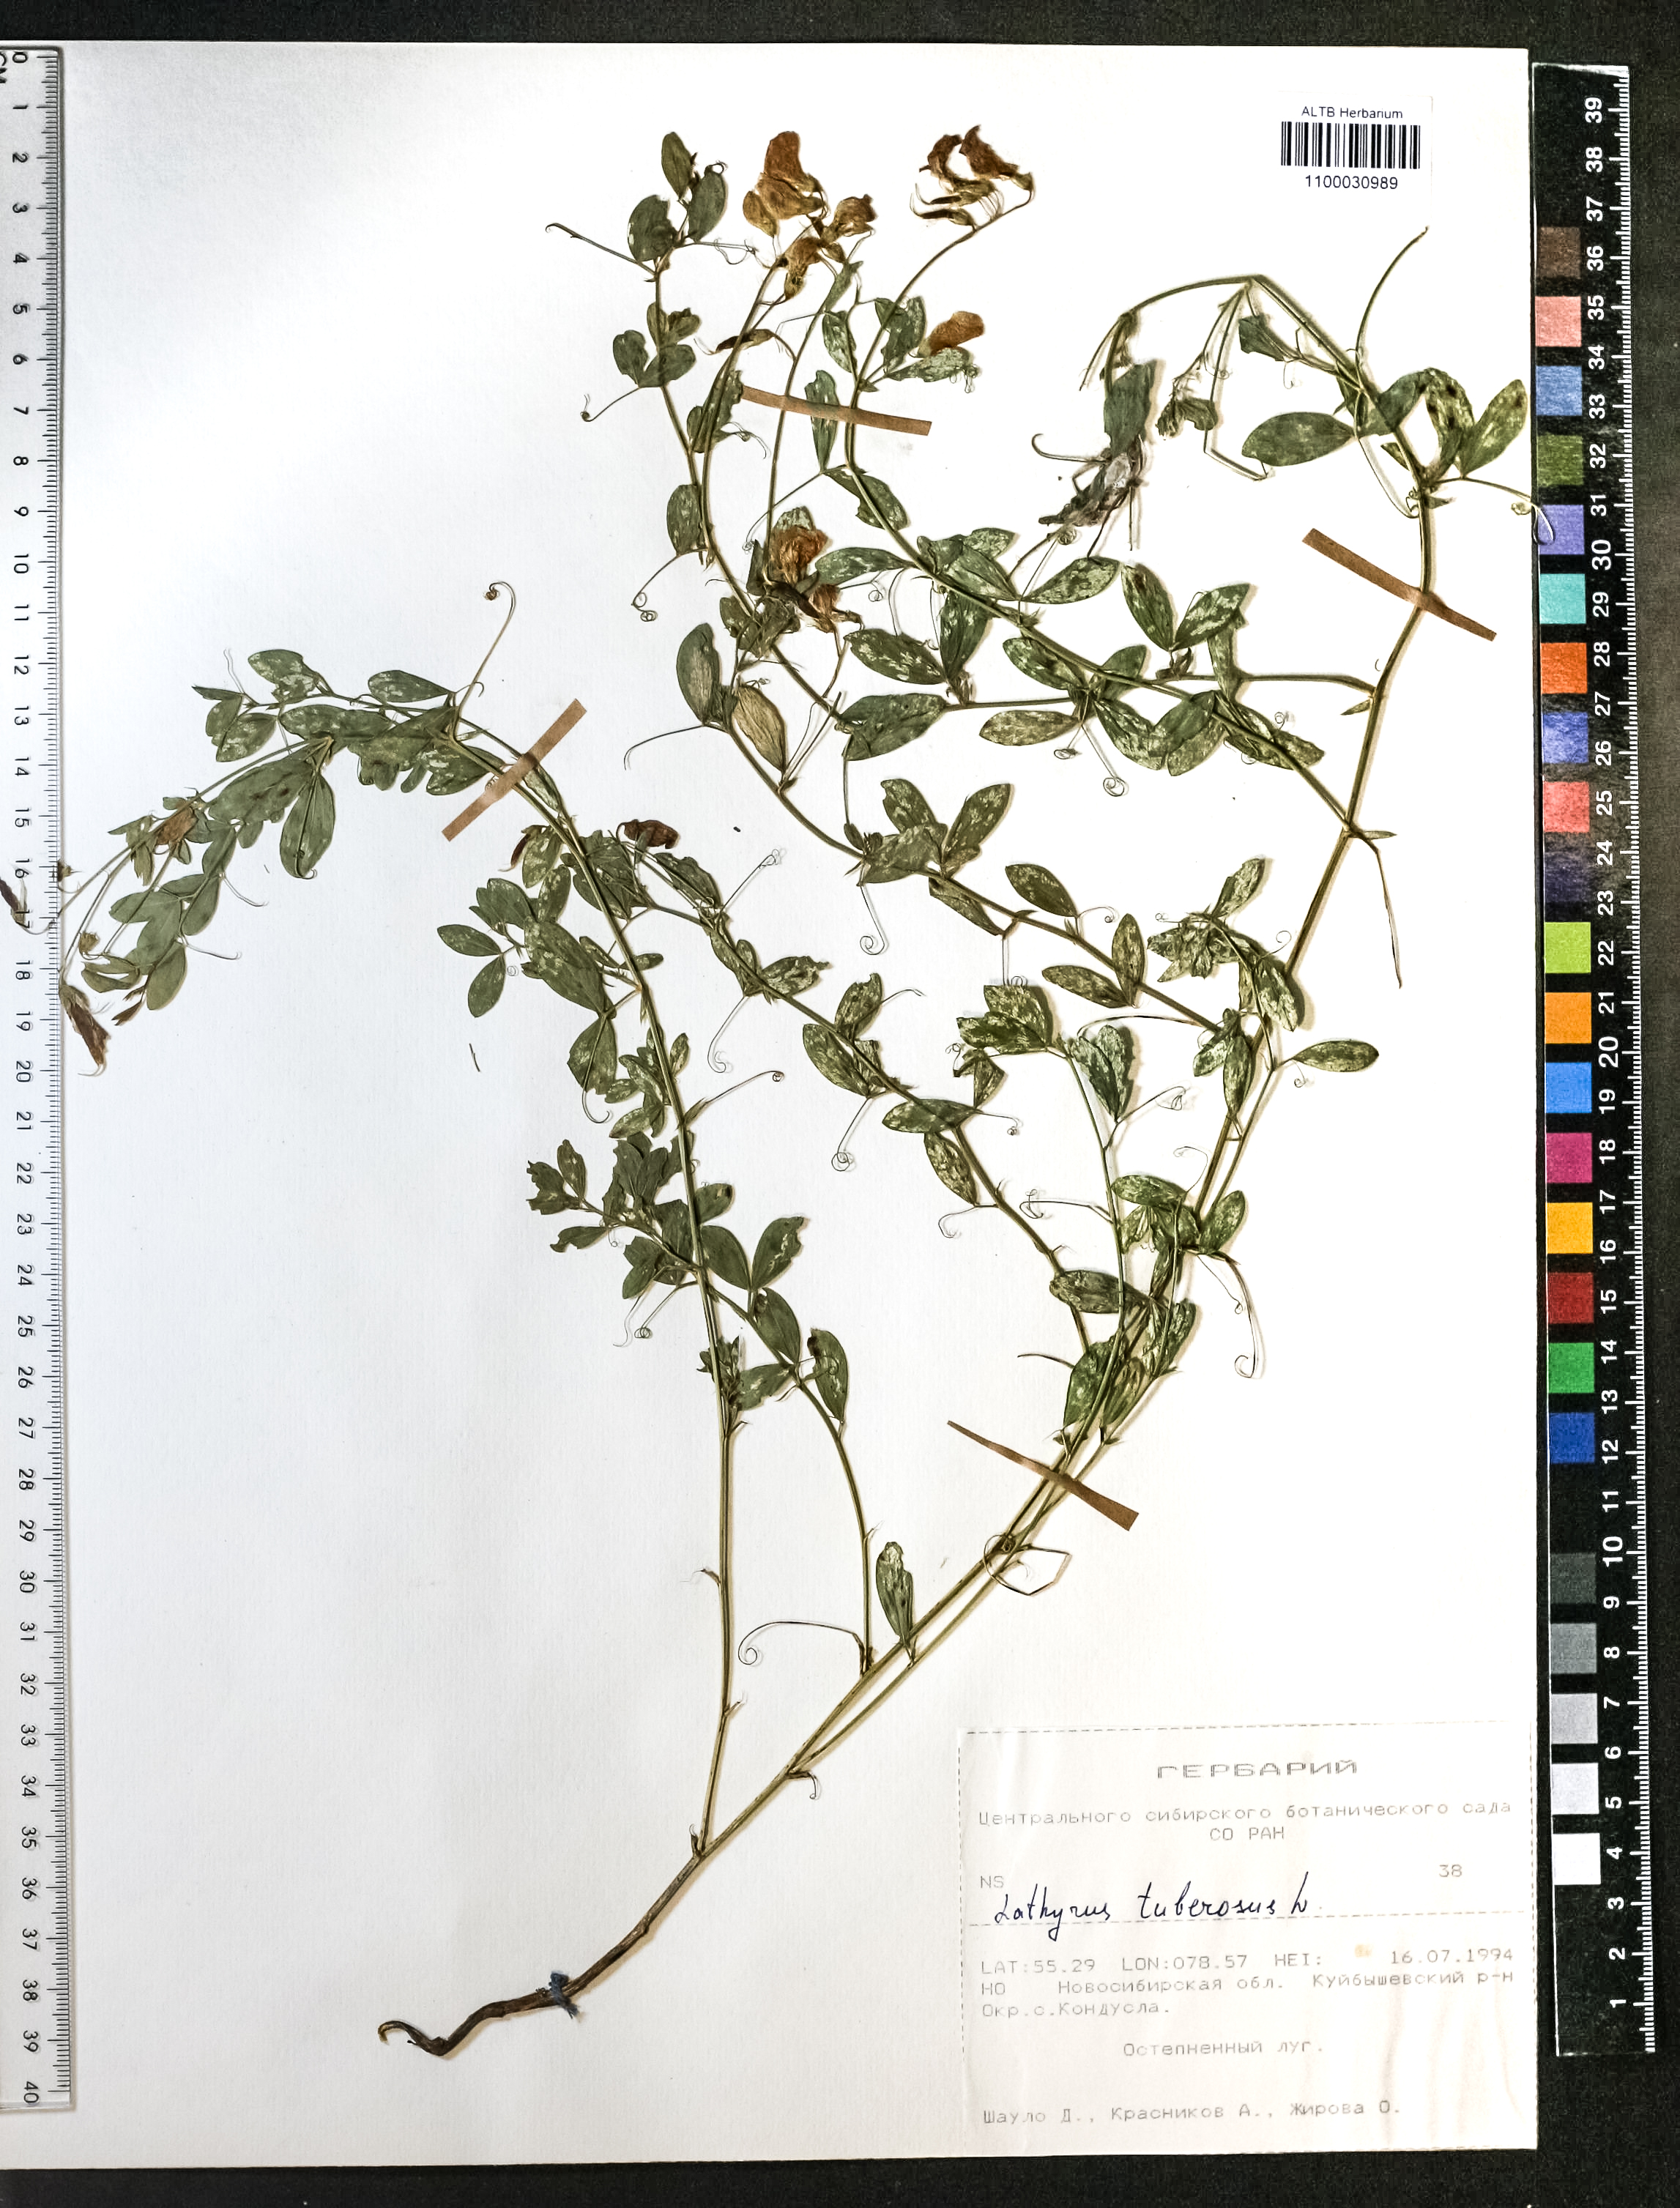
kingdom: Plantae
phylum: Tracheophyta
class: Magnoliopsida
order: Fabales
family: Fabaceae
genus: Lathyrus
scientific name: Lathyrus tuberosus
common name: Tuberous pea
